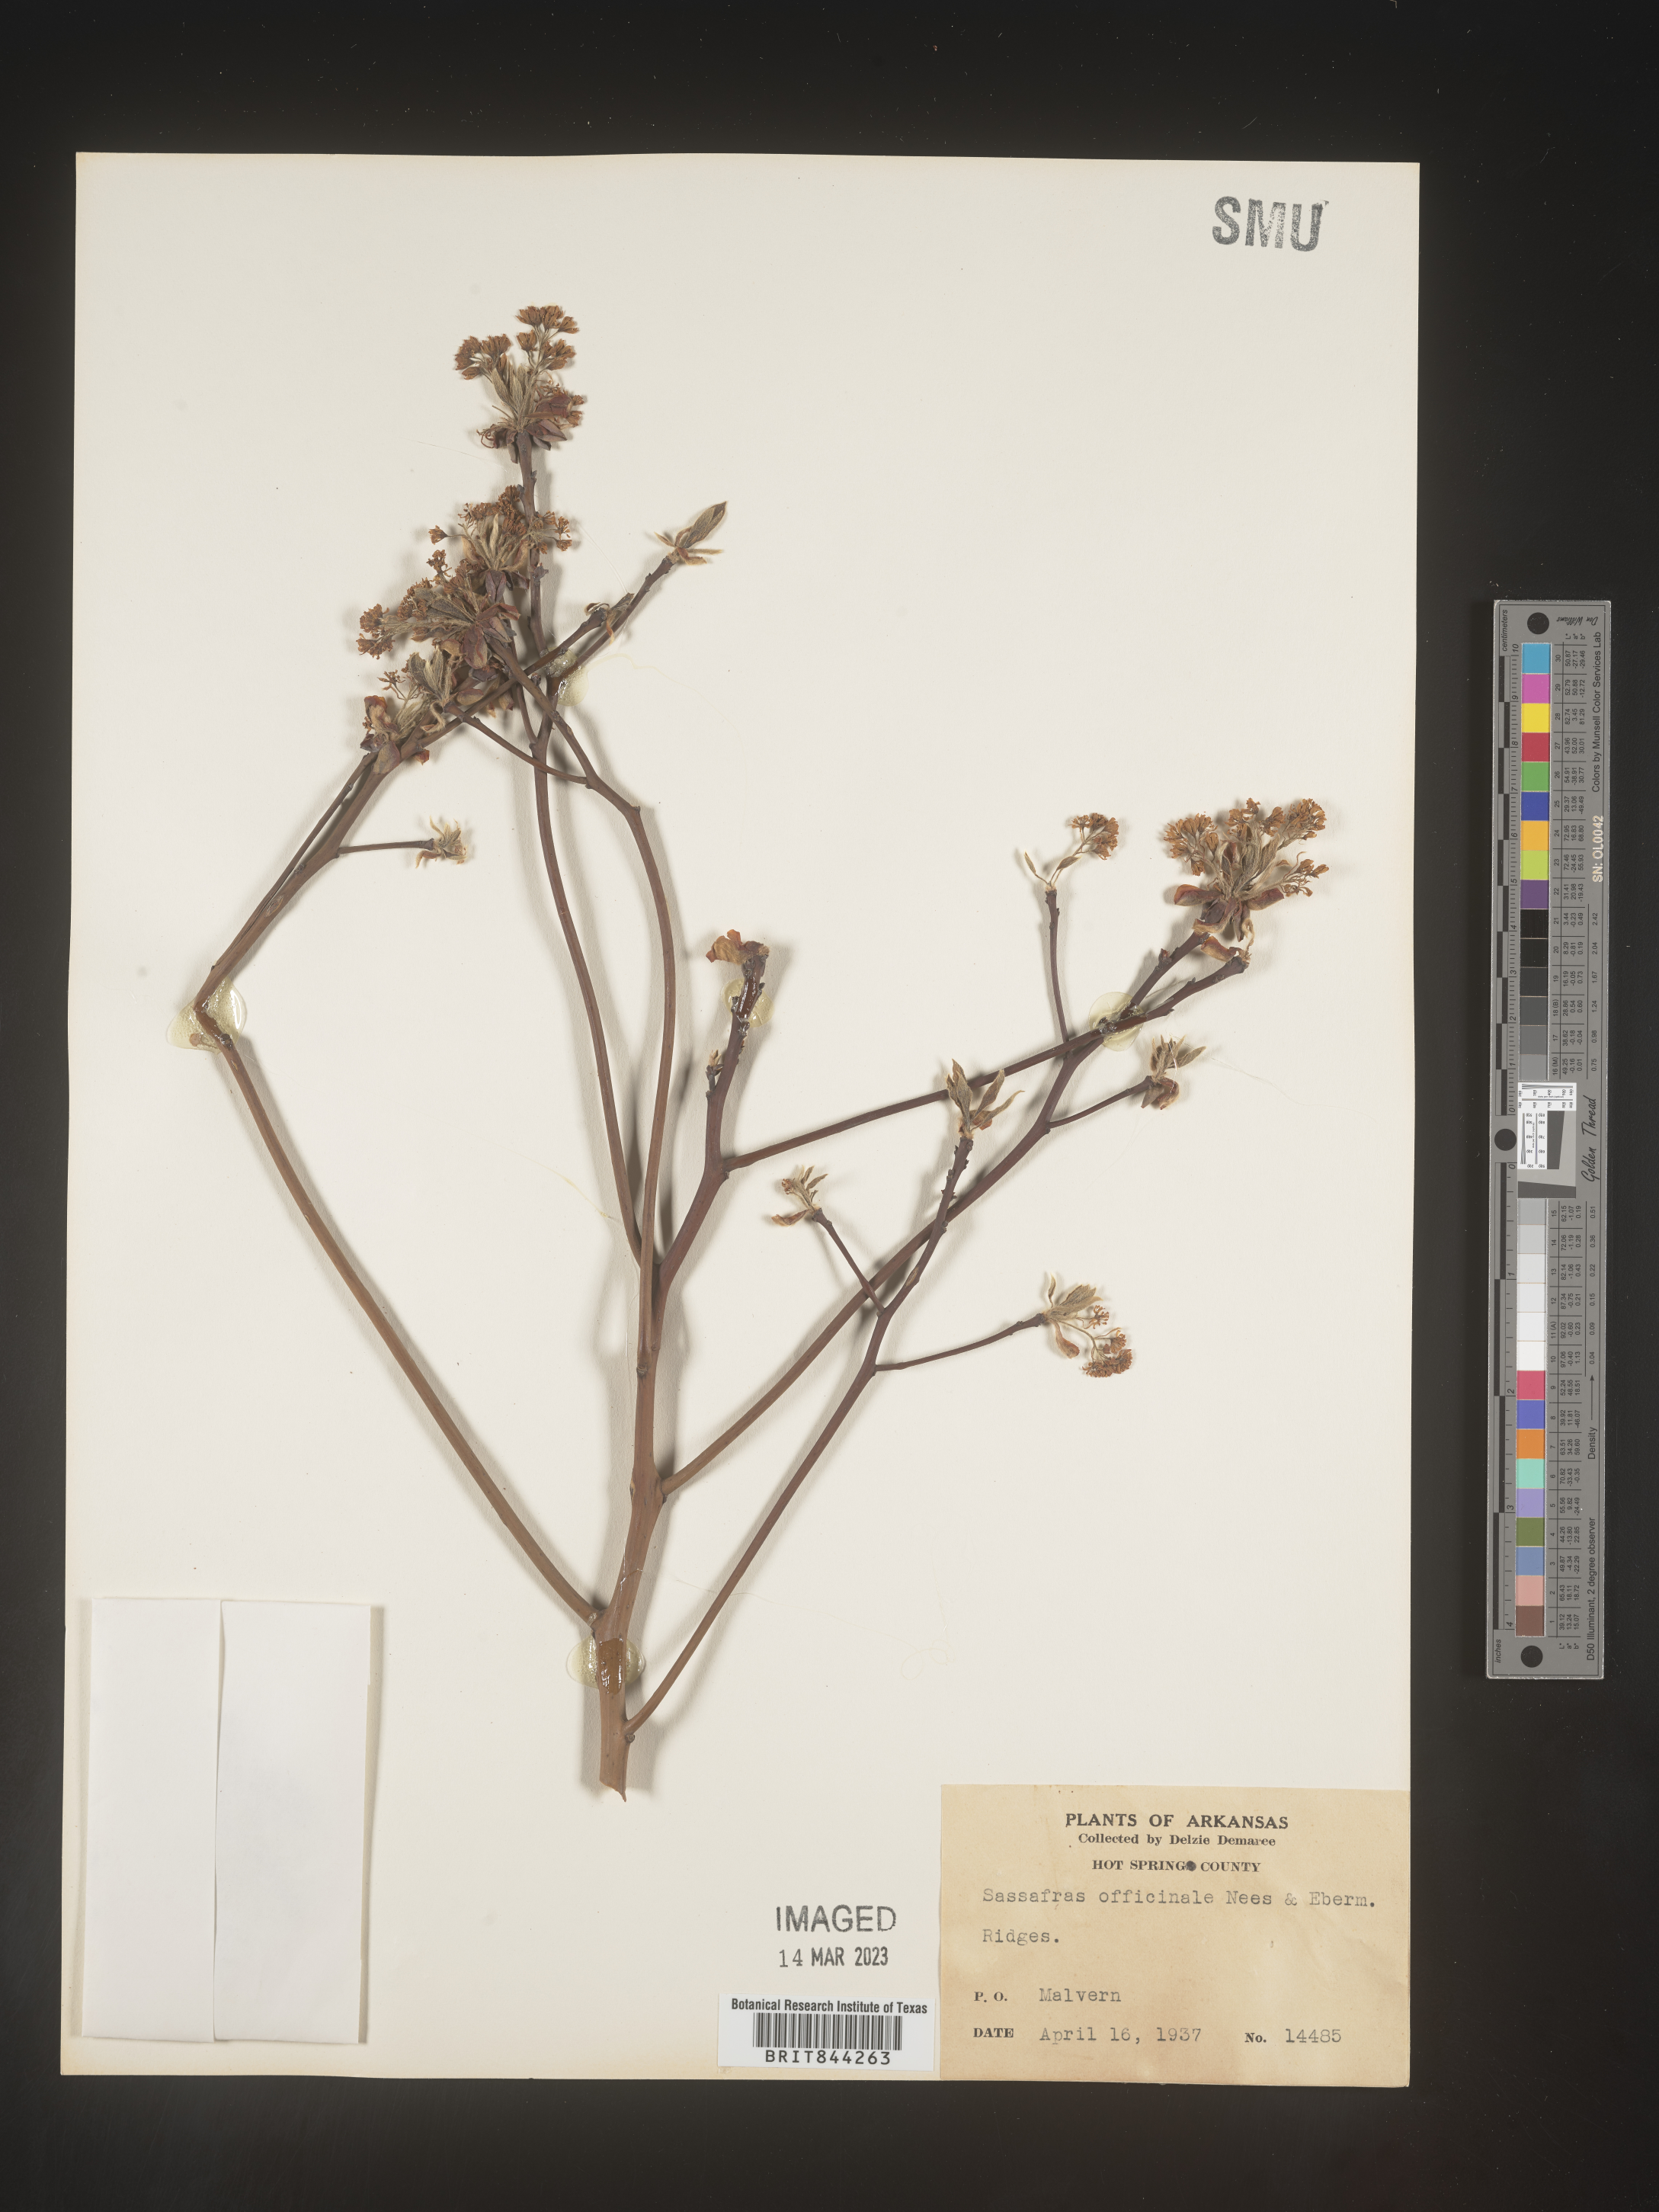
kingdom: Plantae
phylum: Tracheophyta
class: Magnoliopsida
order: Laurales
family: Lauraceae
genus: Sassafras
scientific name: Sassafras albidum
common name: Sassafras
